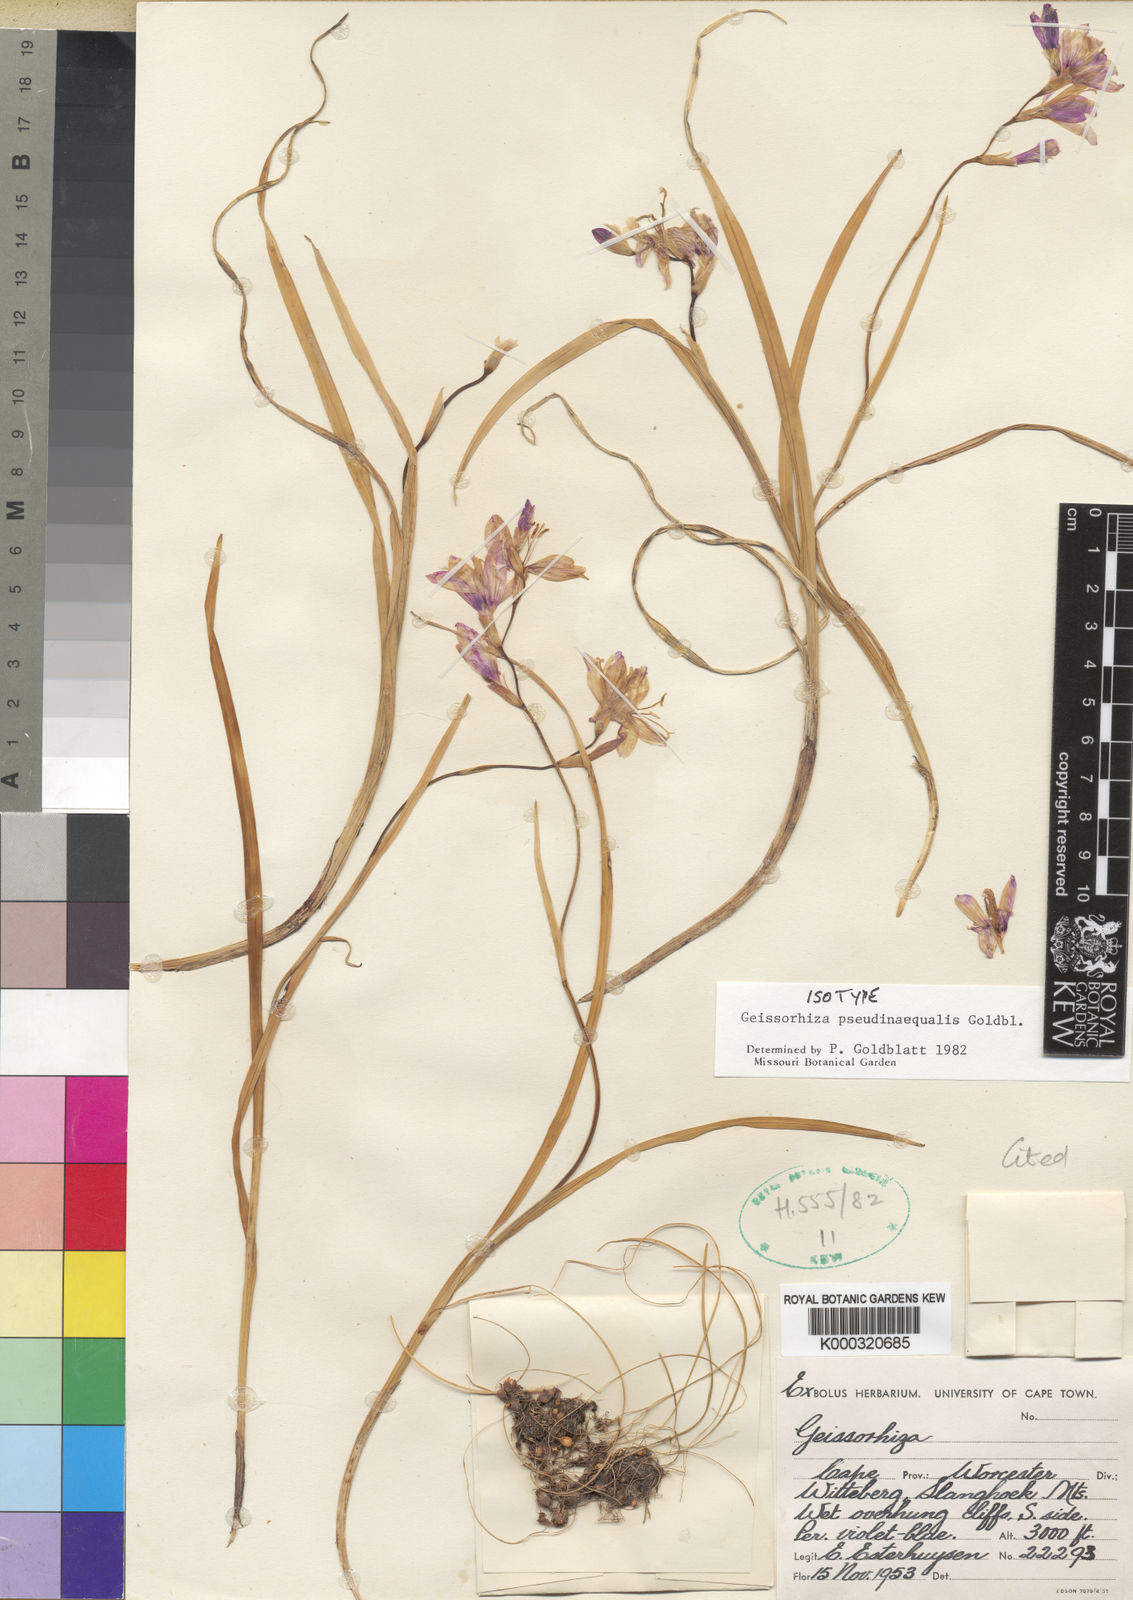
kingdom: Plantae
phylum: Tracheophyta
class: Liliopsida
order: Asparagales
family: Iridaceae
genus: Geissorhiza
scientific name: Geissorhiza pseudinaequalis
